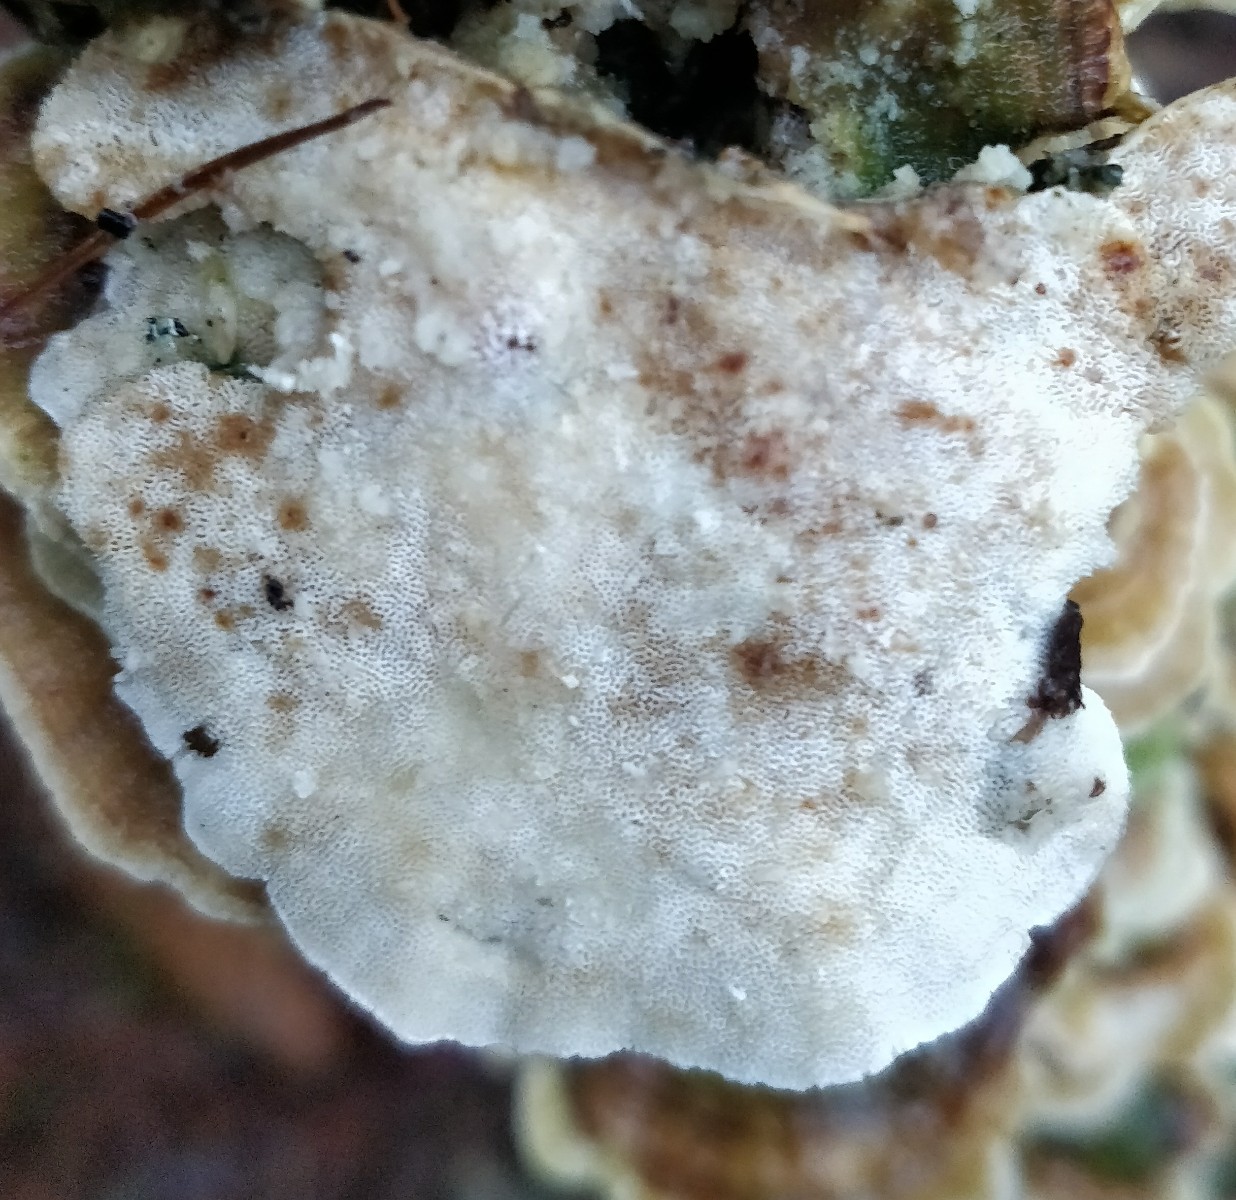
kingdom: Fungi
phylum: Basidiomycota
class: Agaricomycetes
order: Polyporales
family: Polyporaceae
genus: Trametes
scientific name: Trametes versicolor
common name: broget læderporesvamp
